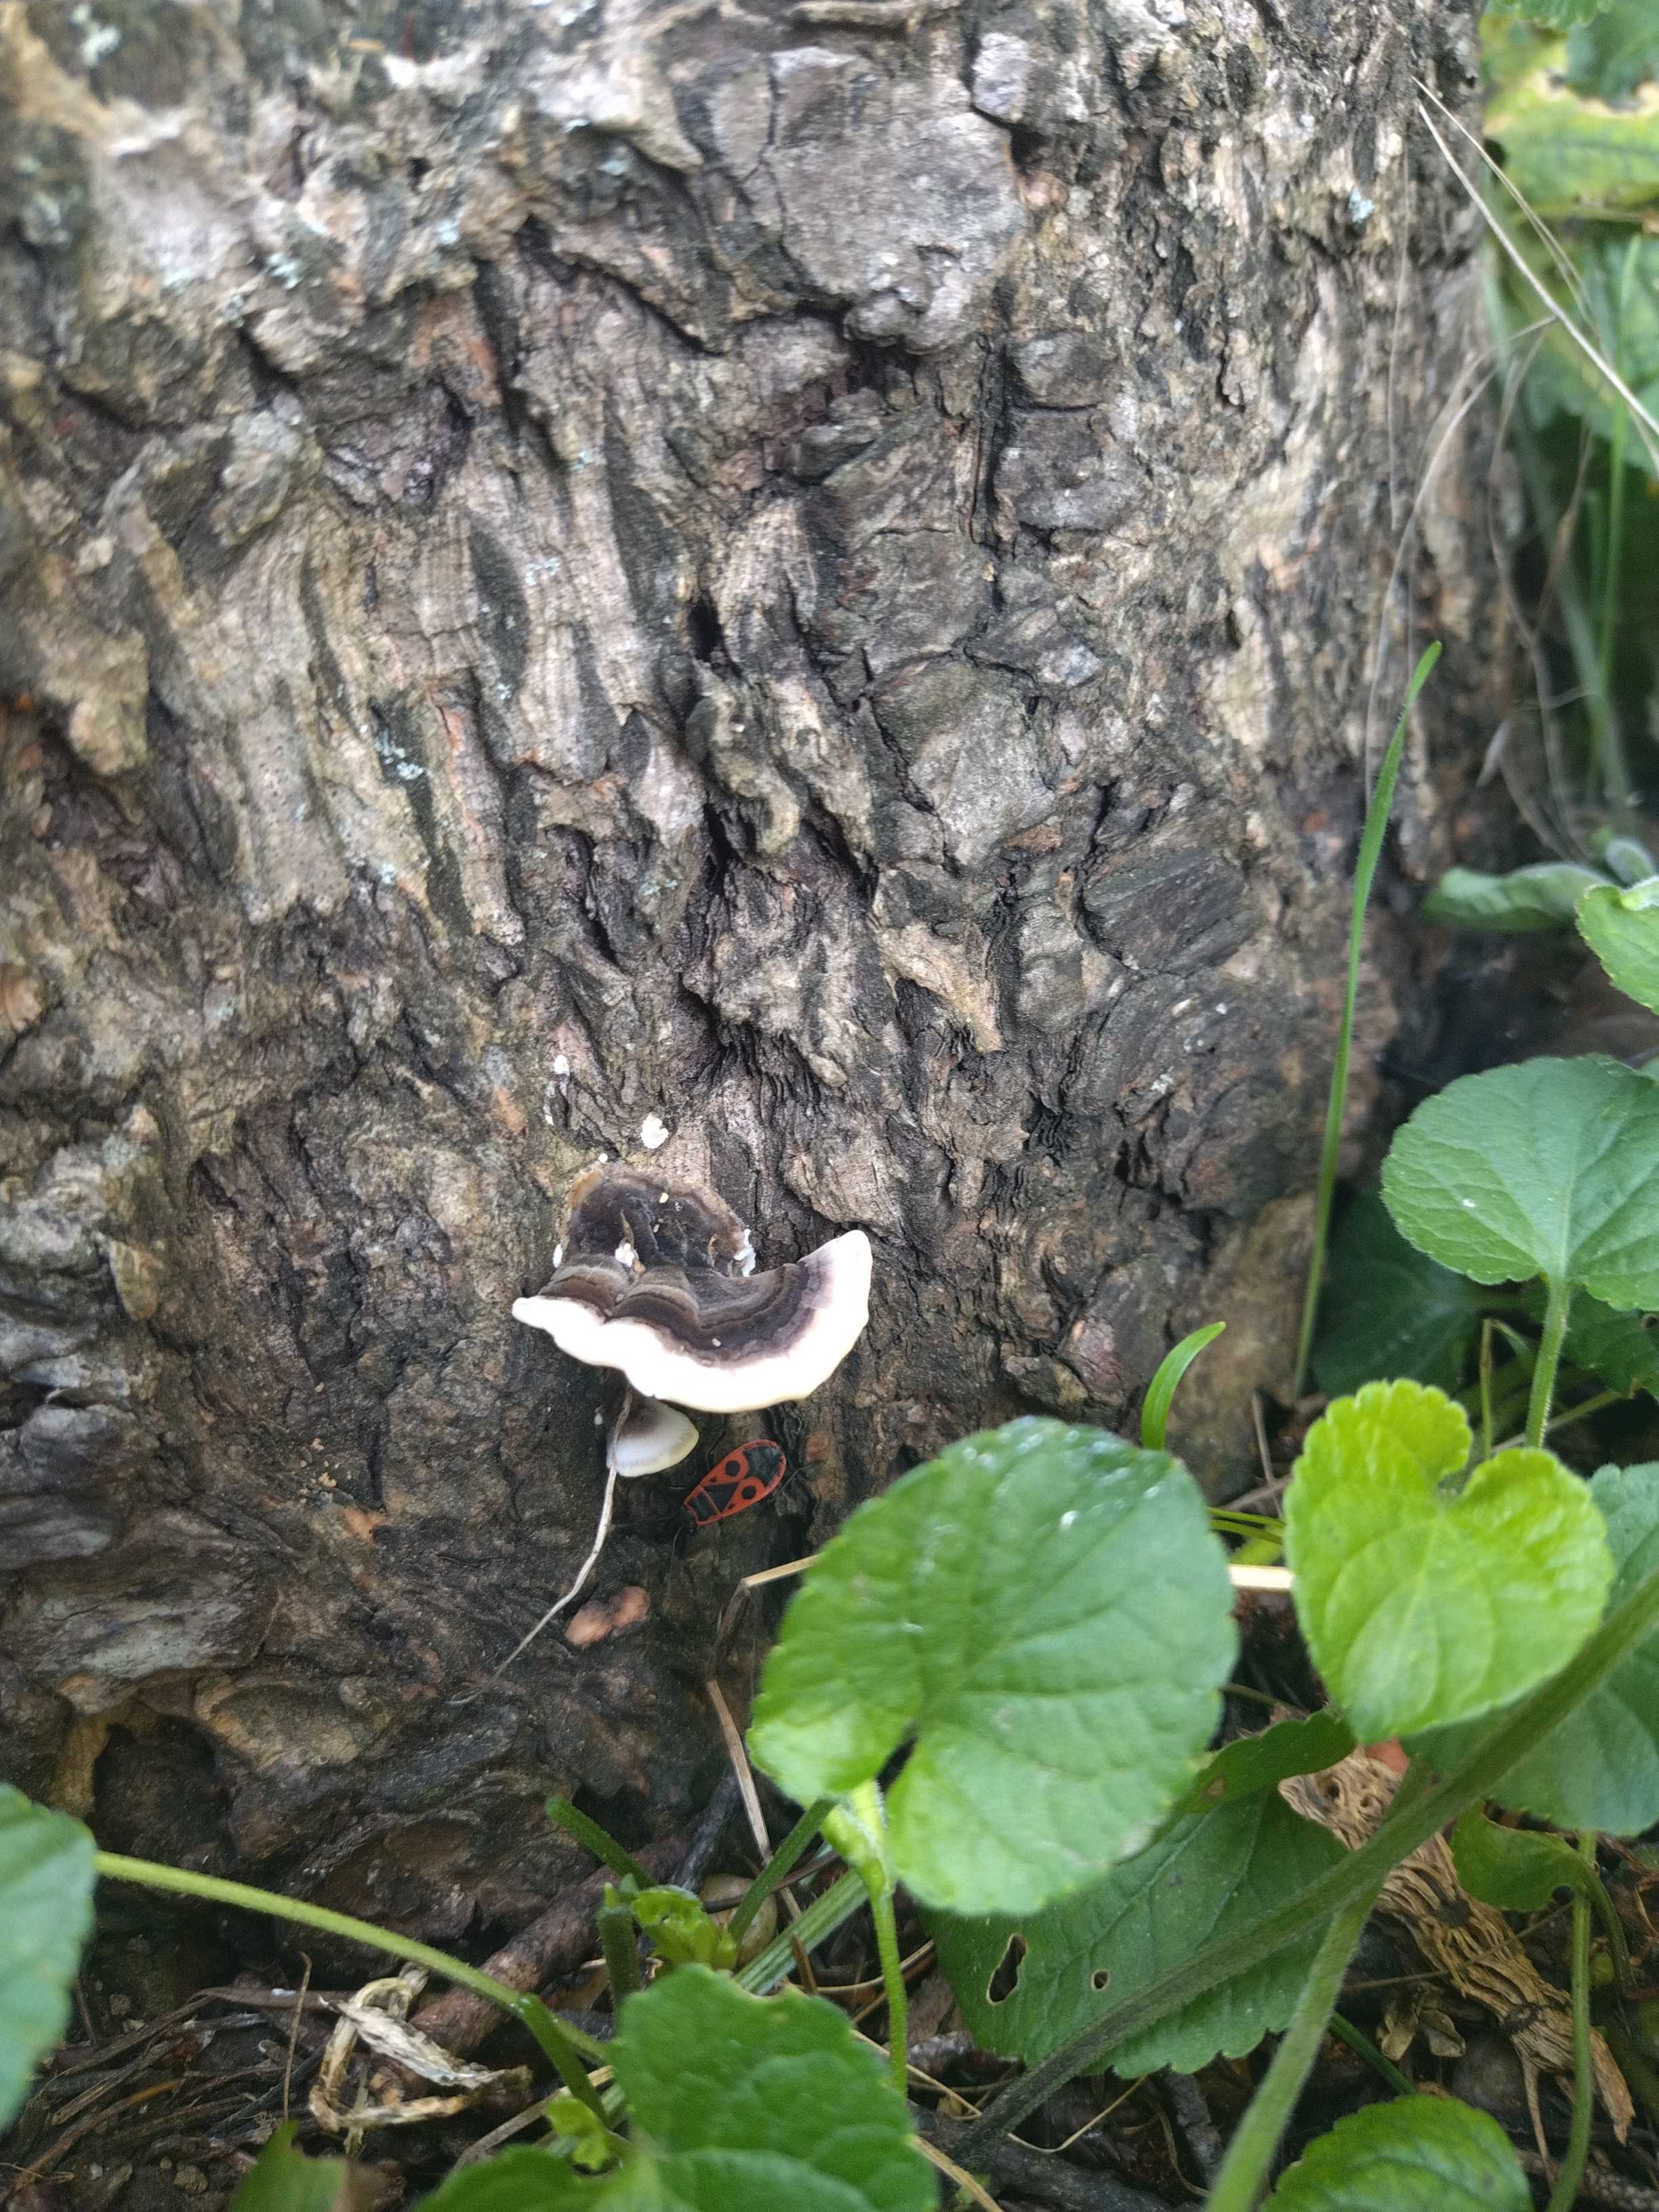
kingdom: Fungi
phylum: Basidiomycota
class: Agaricomycetes
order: Polyporales
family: Polyporaceae
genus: Trametes
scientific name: Trametes versicolor
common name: broget læderporesvamp
